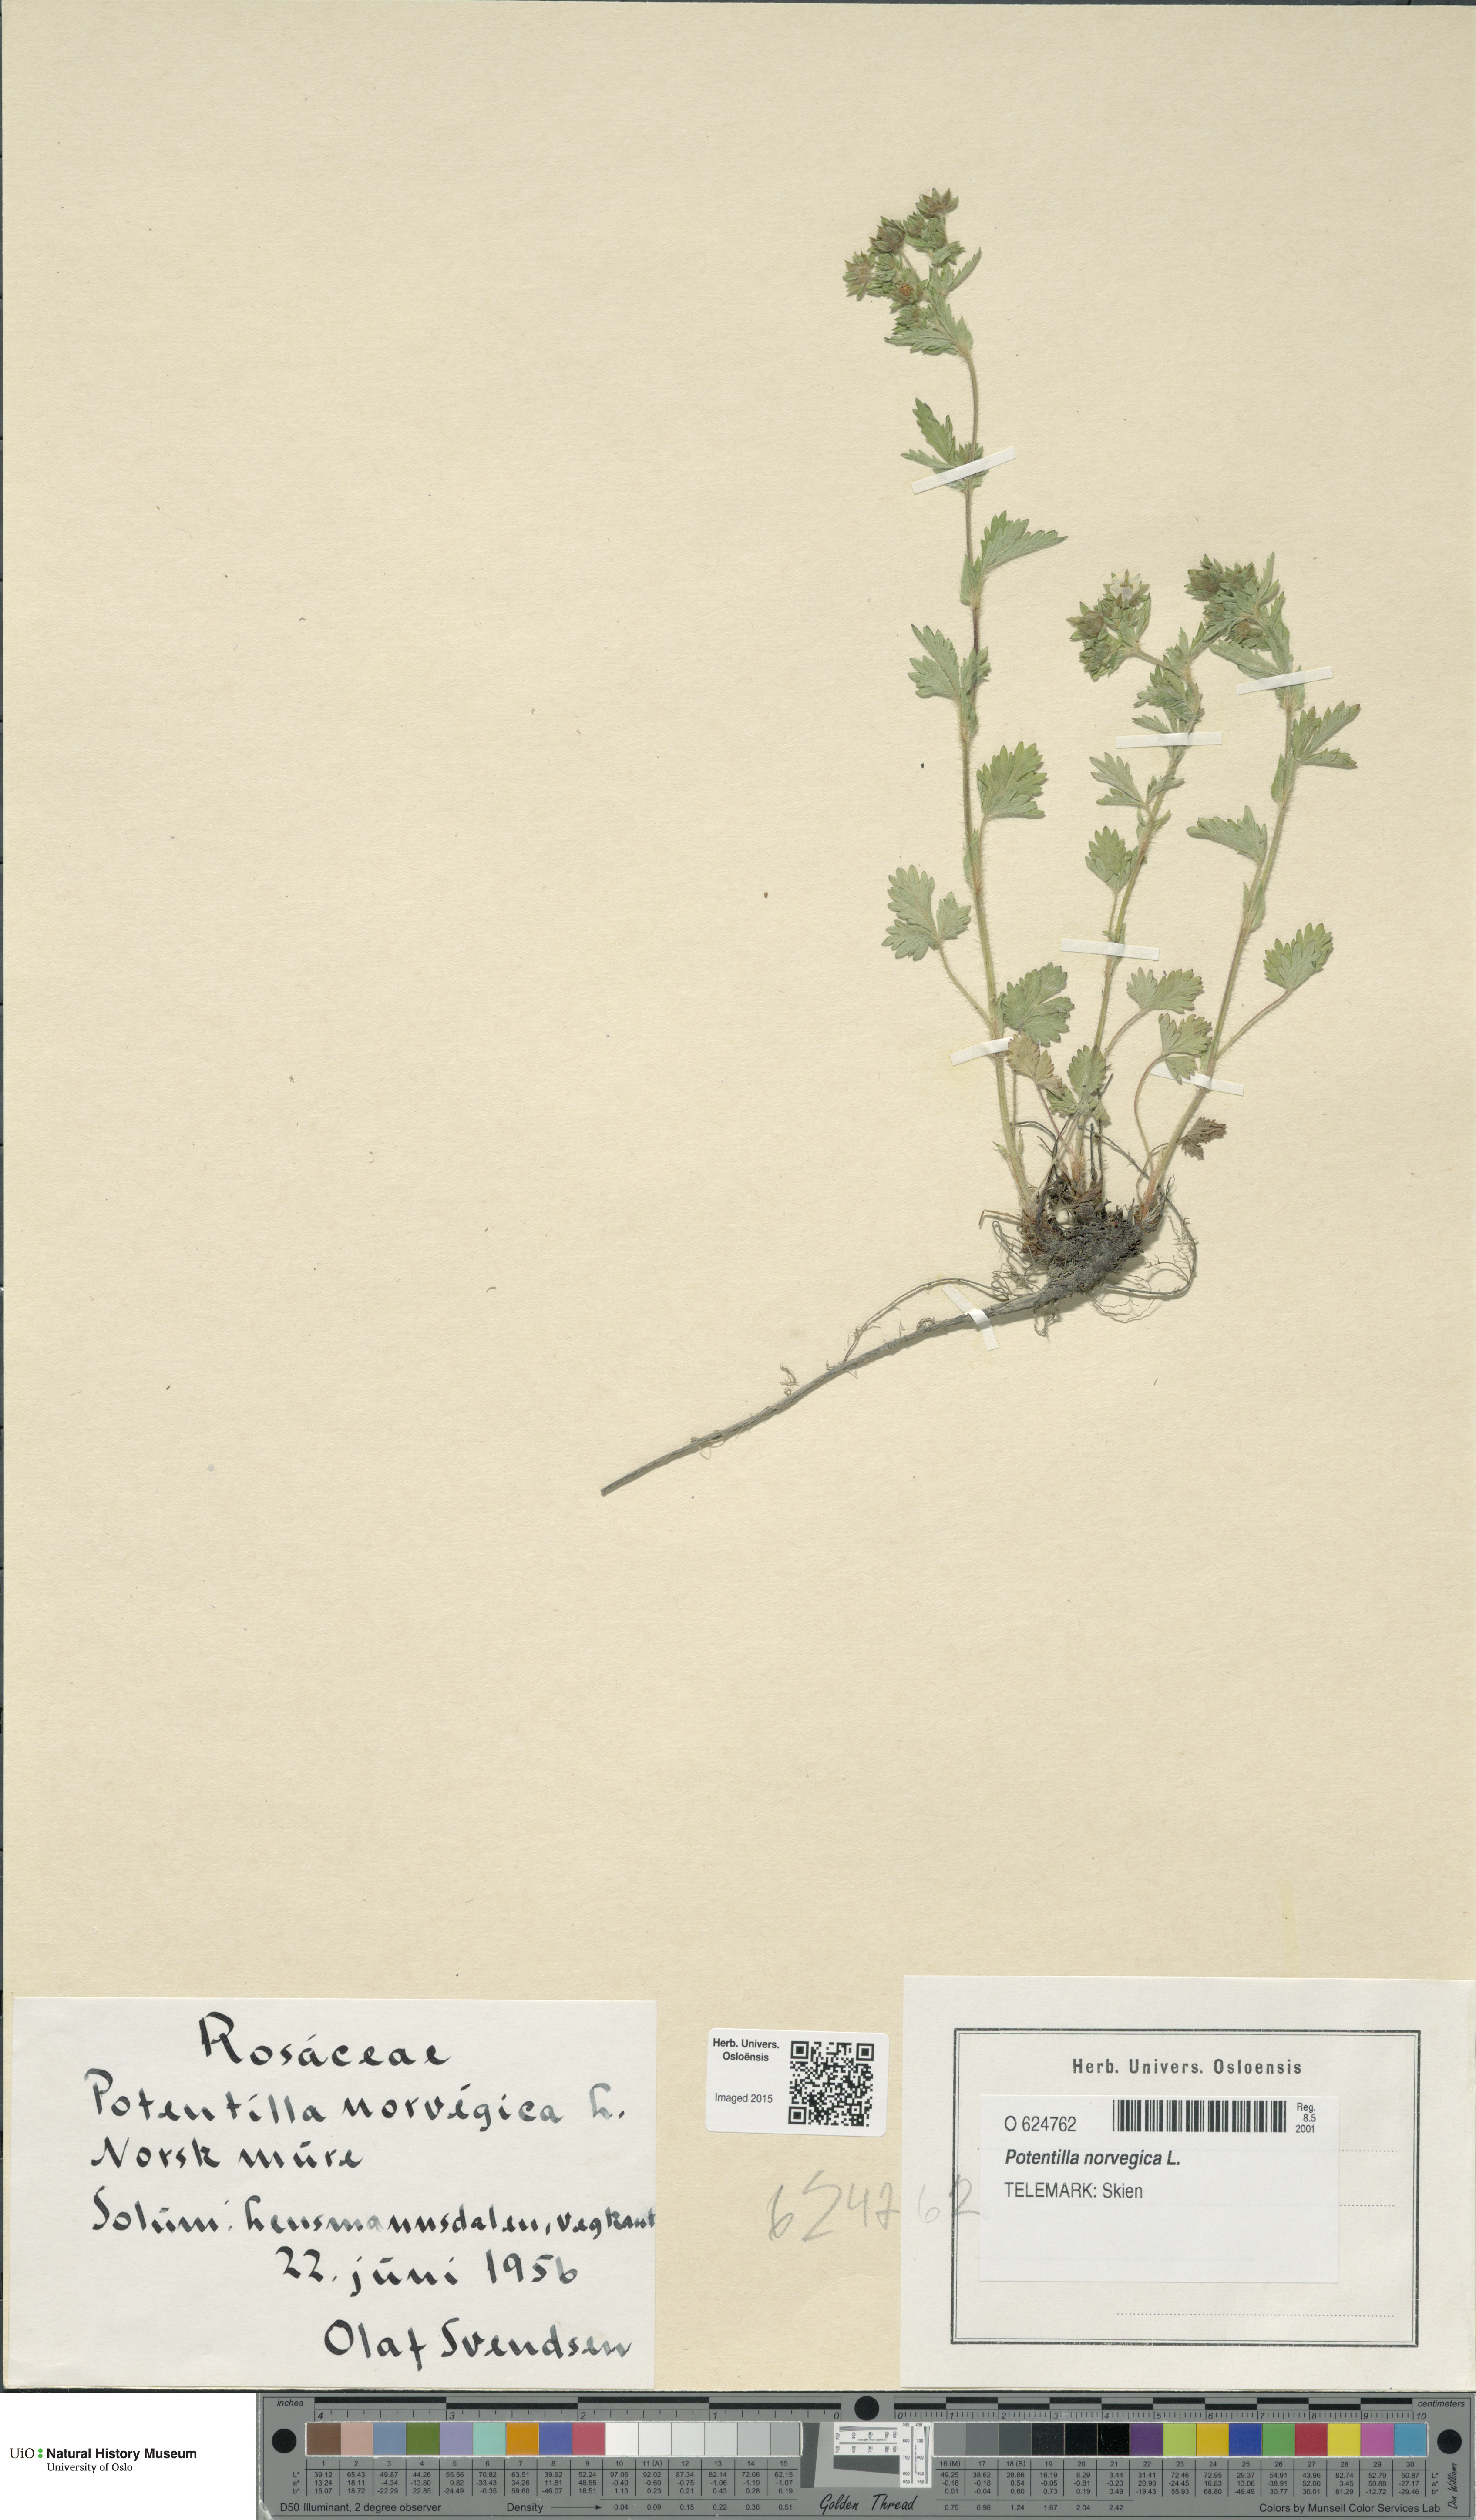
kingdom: Plantae
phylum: Tracheophyta
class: Magnoliopsida
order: Rosales
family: Rosaceae
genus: Potentilla
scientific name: Potentilla norvegica
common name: Ternate-leaved cinquefoil
